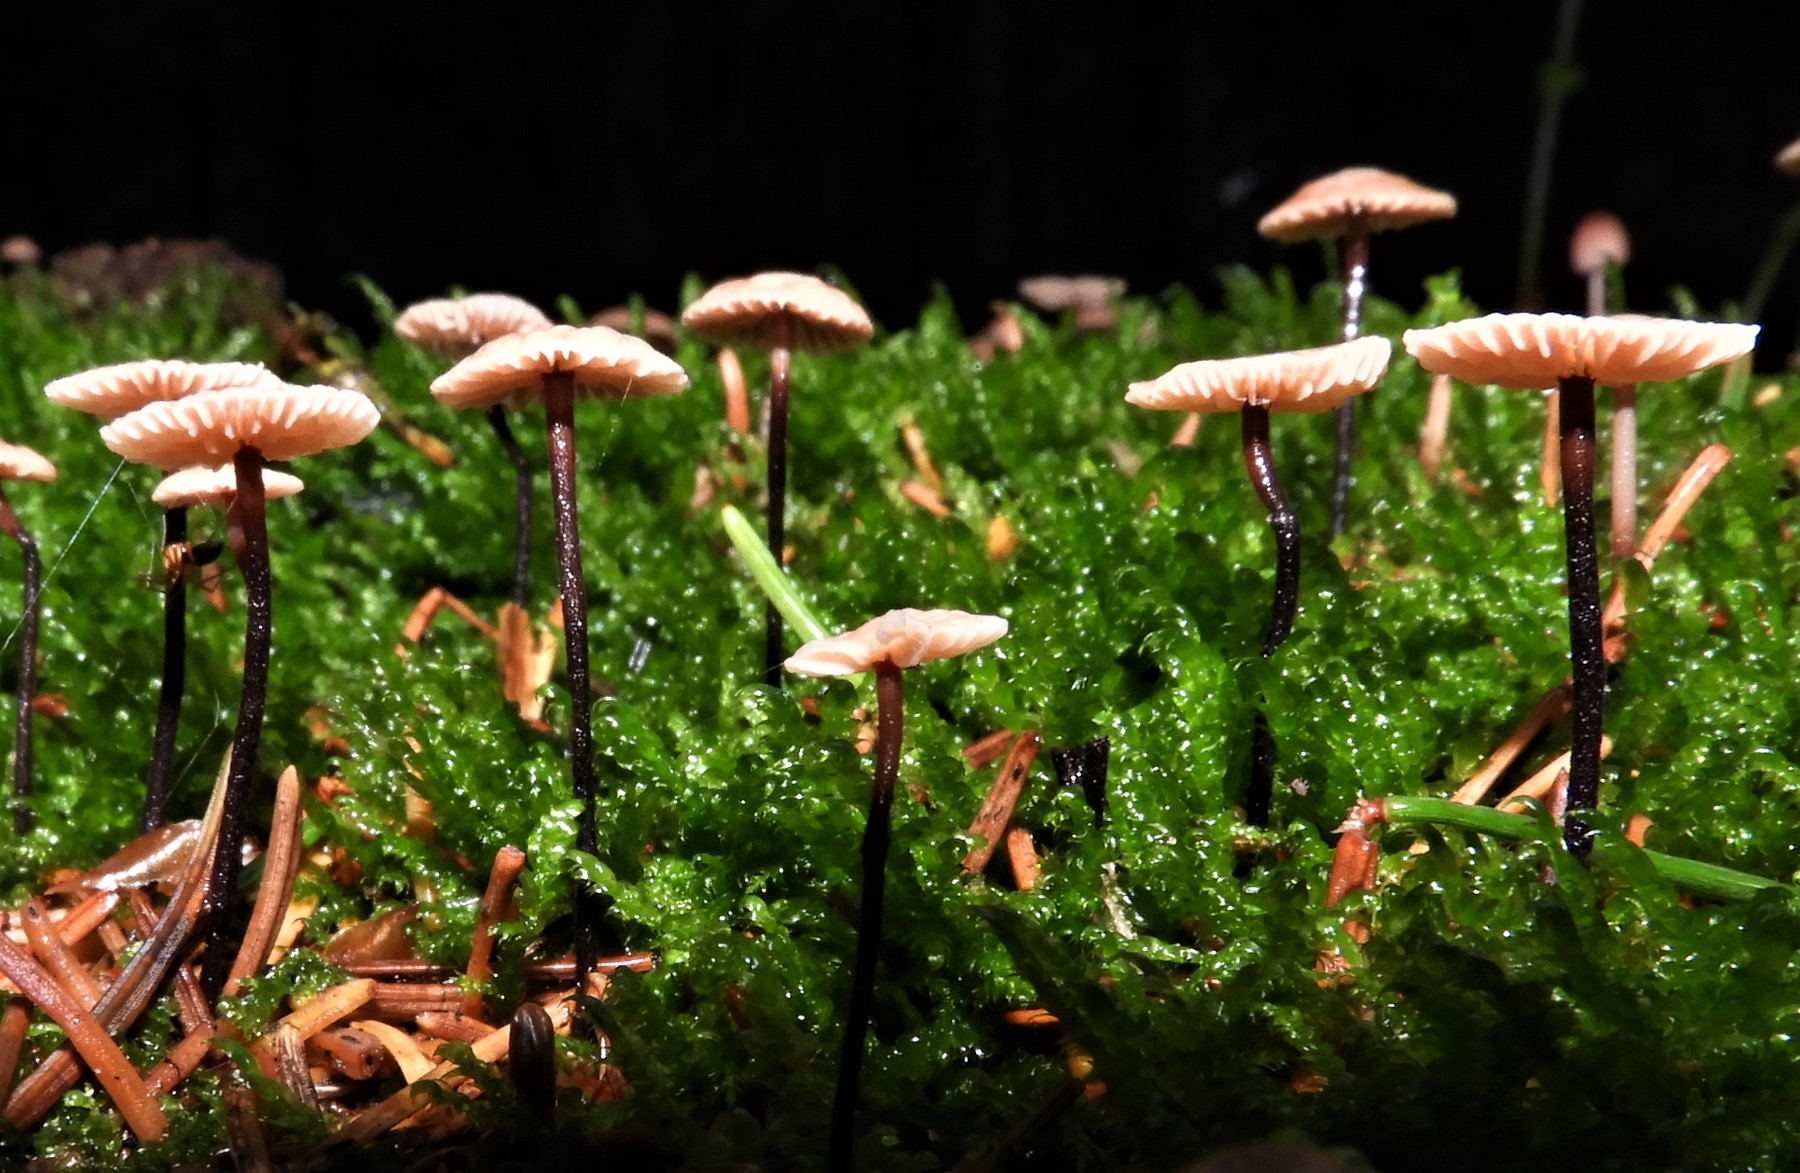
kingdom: Fungi
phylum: Basidiomycota
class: Agaricomycetes
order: Agaricales
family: Omphalotaceae
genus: Paragymnopus
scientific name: Paragymnopus perforans
